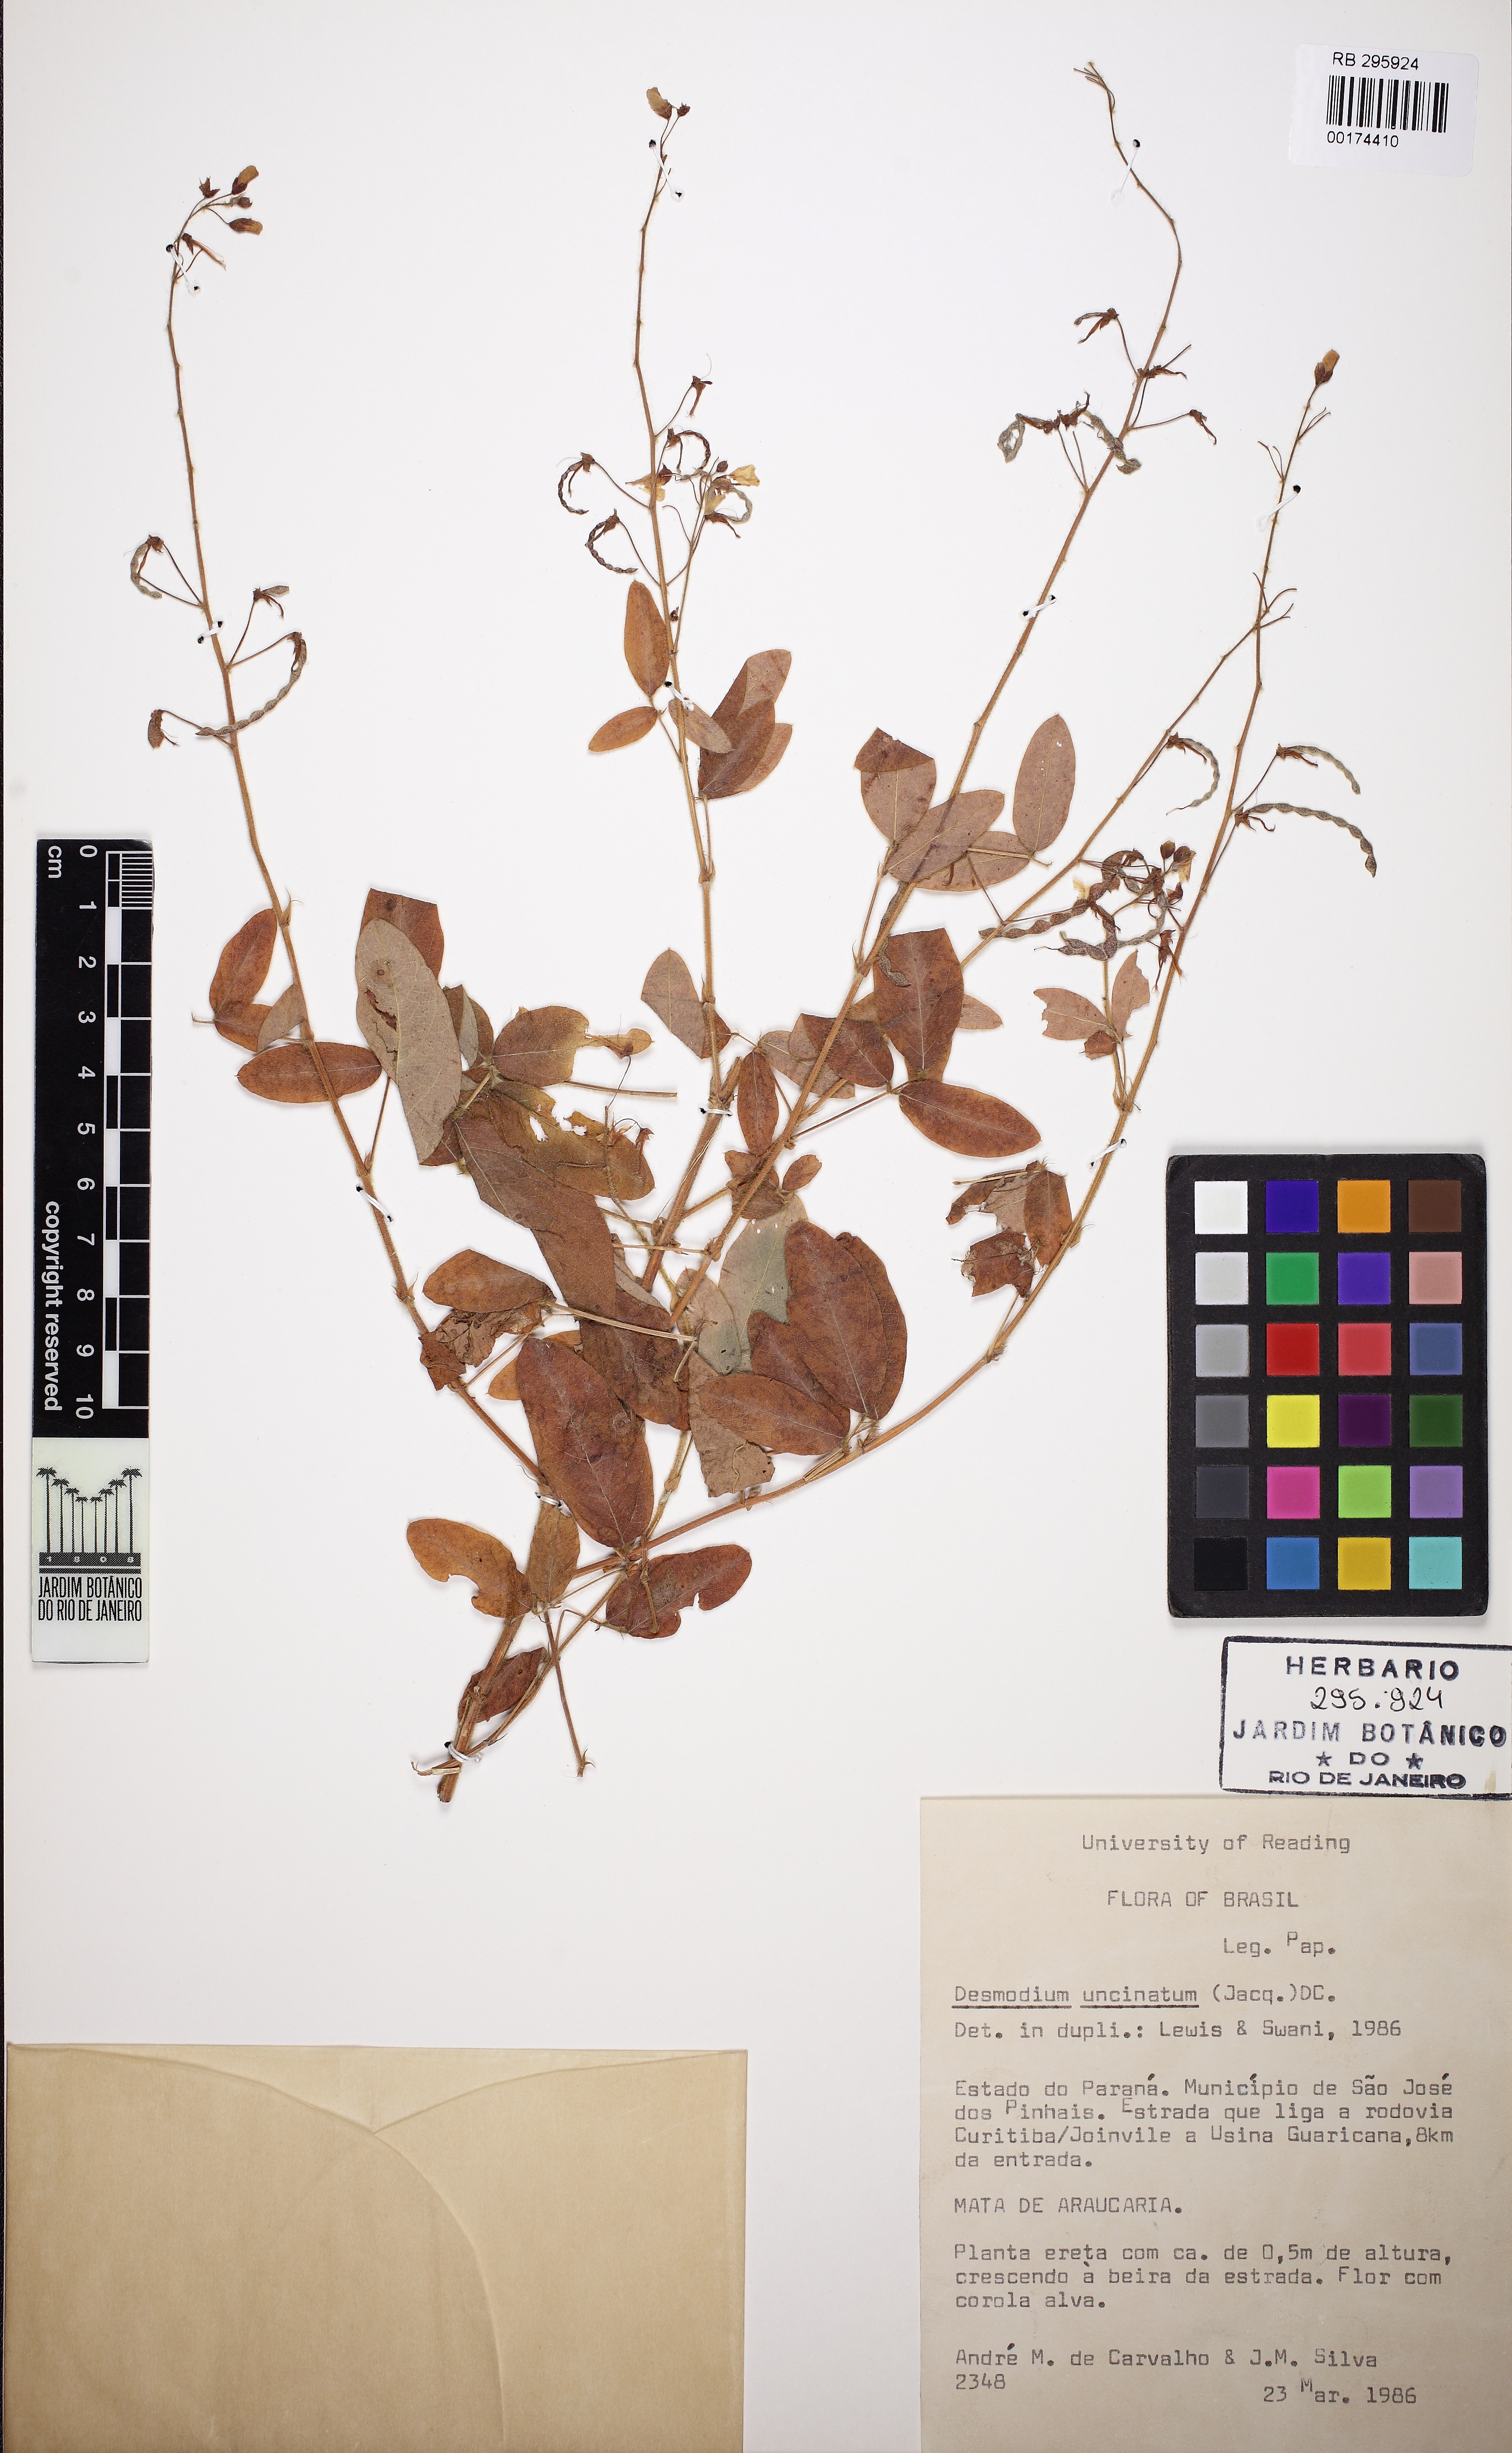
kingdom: Plantae
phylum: Tracheophyta
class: Magnoliopsida
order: Fabales
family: Fabaceae
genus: Desmodium
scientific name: Desmodium uncinatum
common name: Silverleaf desmodium
